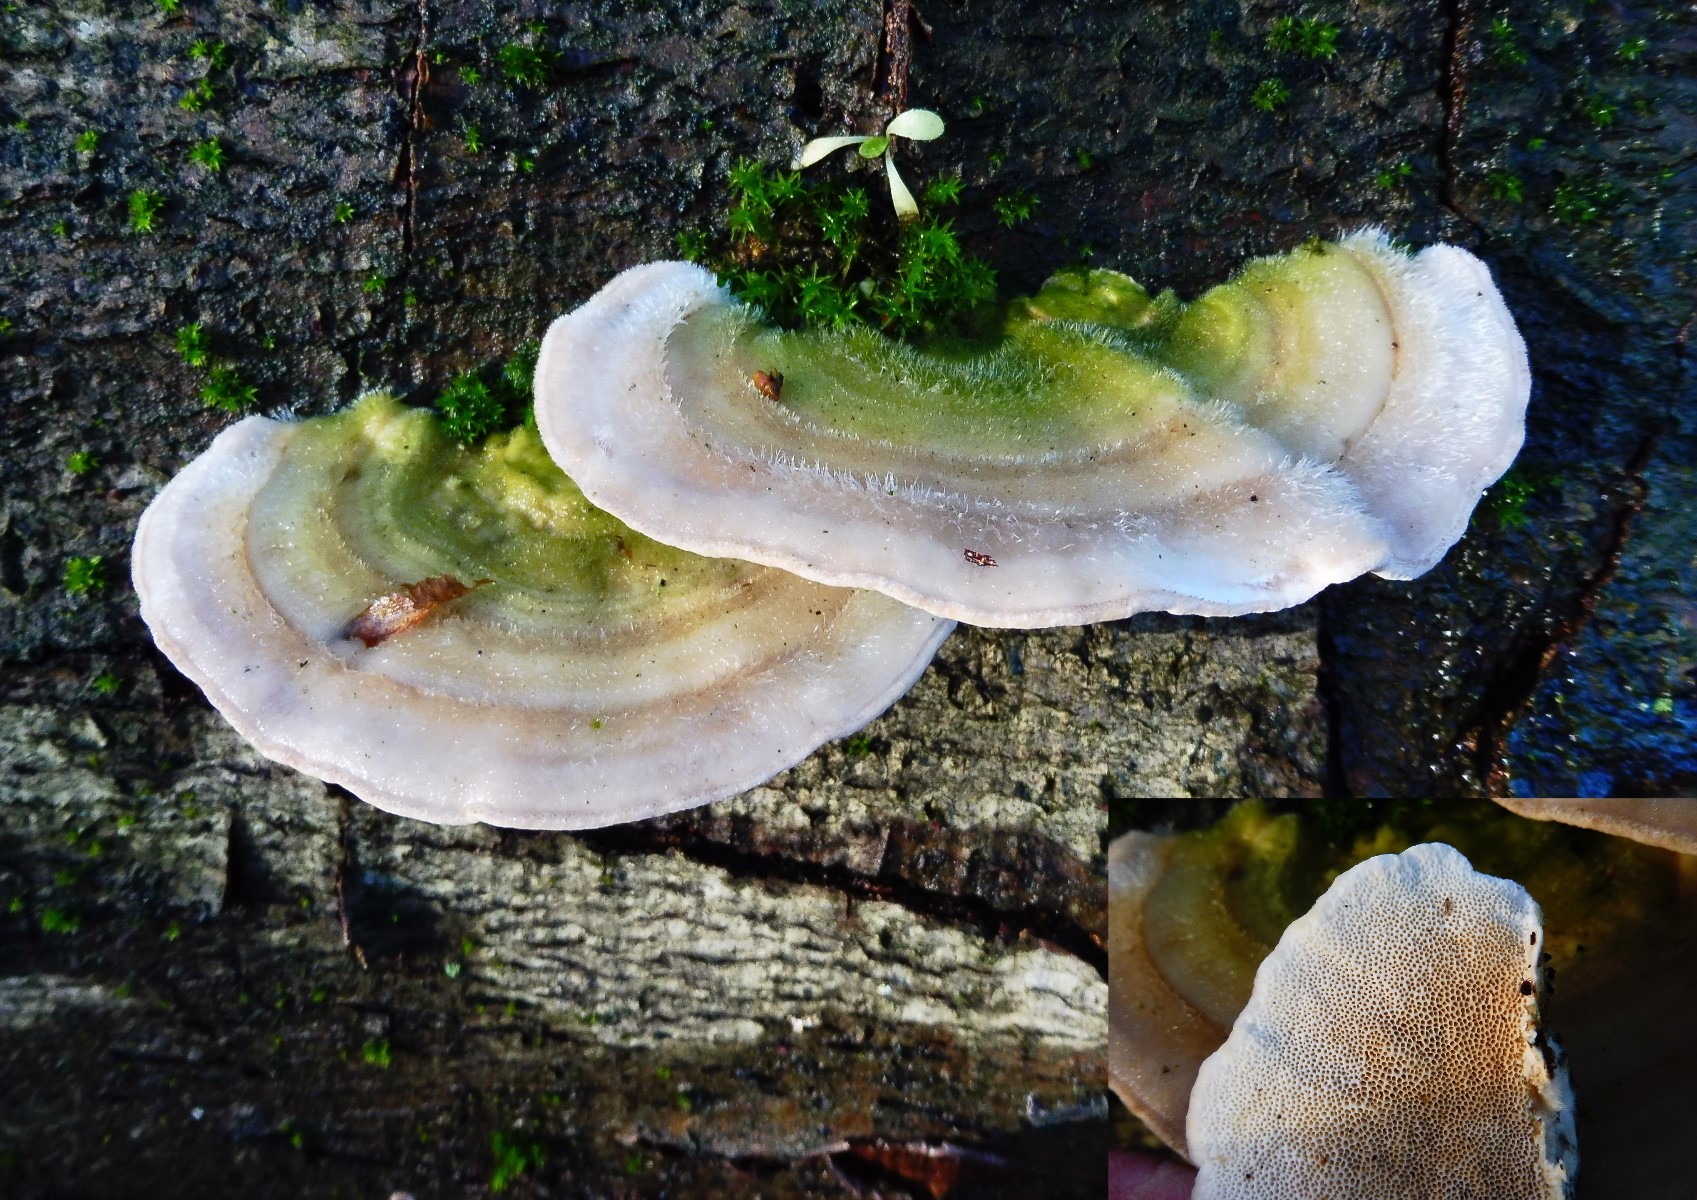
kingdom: Fungi
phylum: Basidiomycota
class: Agaricomycetes
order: Polyporales
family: Polyporaceae
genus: Trametes
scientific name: Trametes hirsuta
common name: håret læderporesvamp
